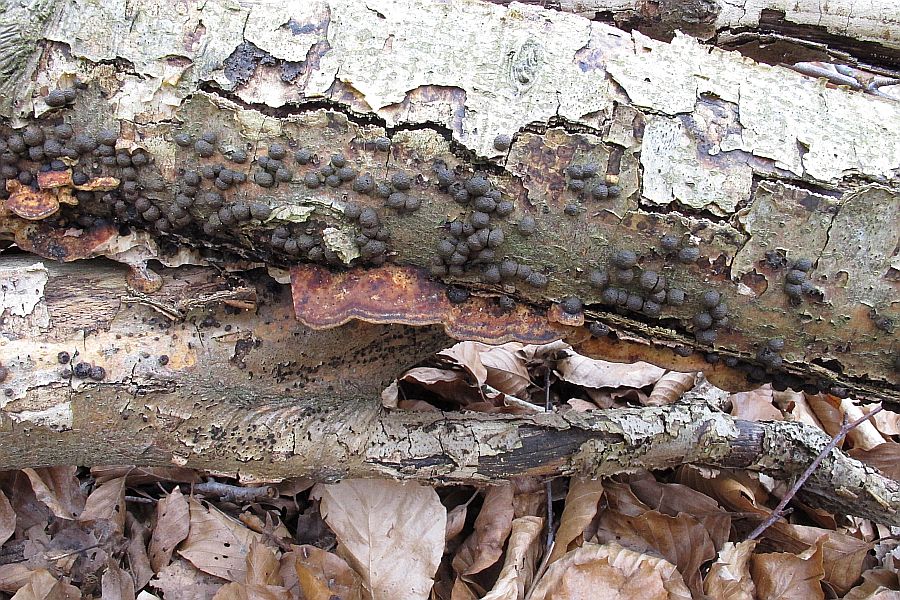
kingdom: Fungi
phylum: Basidiomycota
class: Agaricomycetes
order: Polyporales
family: Incrustoporiaceae
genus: Skeletocutis
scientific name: Skeletocutis nemoralis
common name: stor krystalporesvamp
